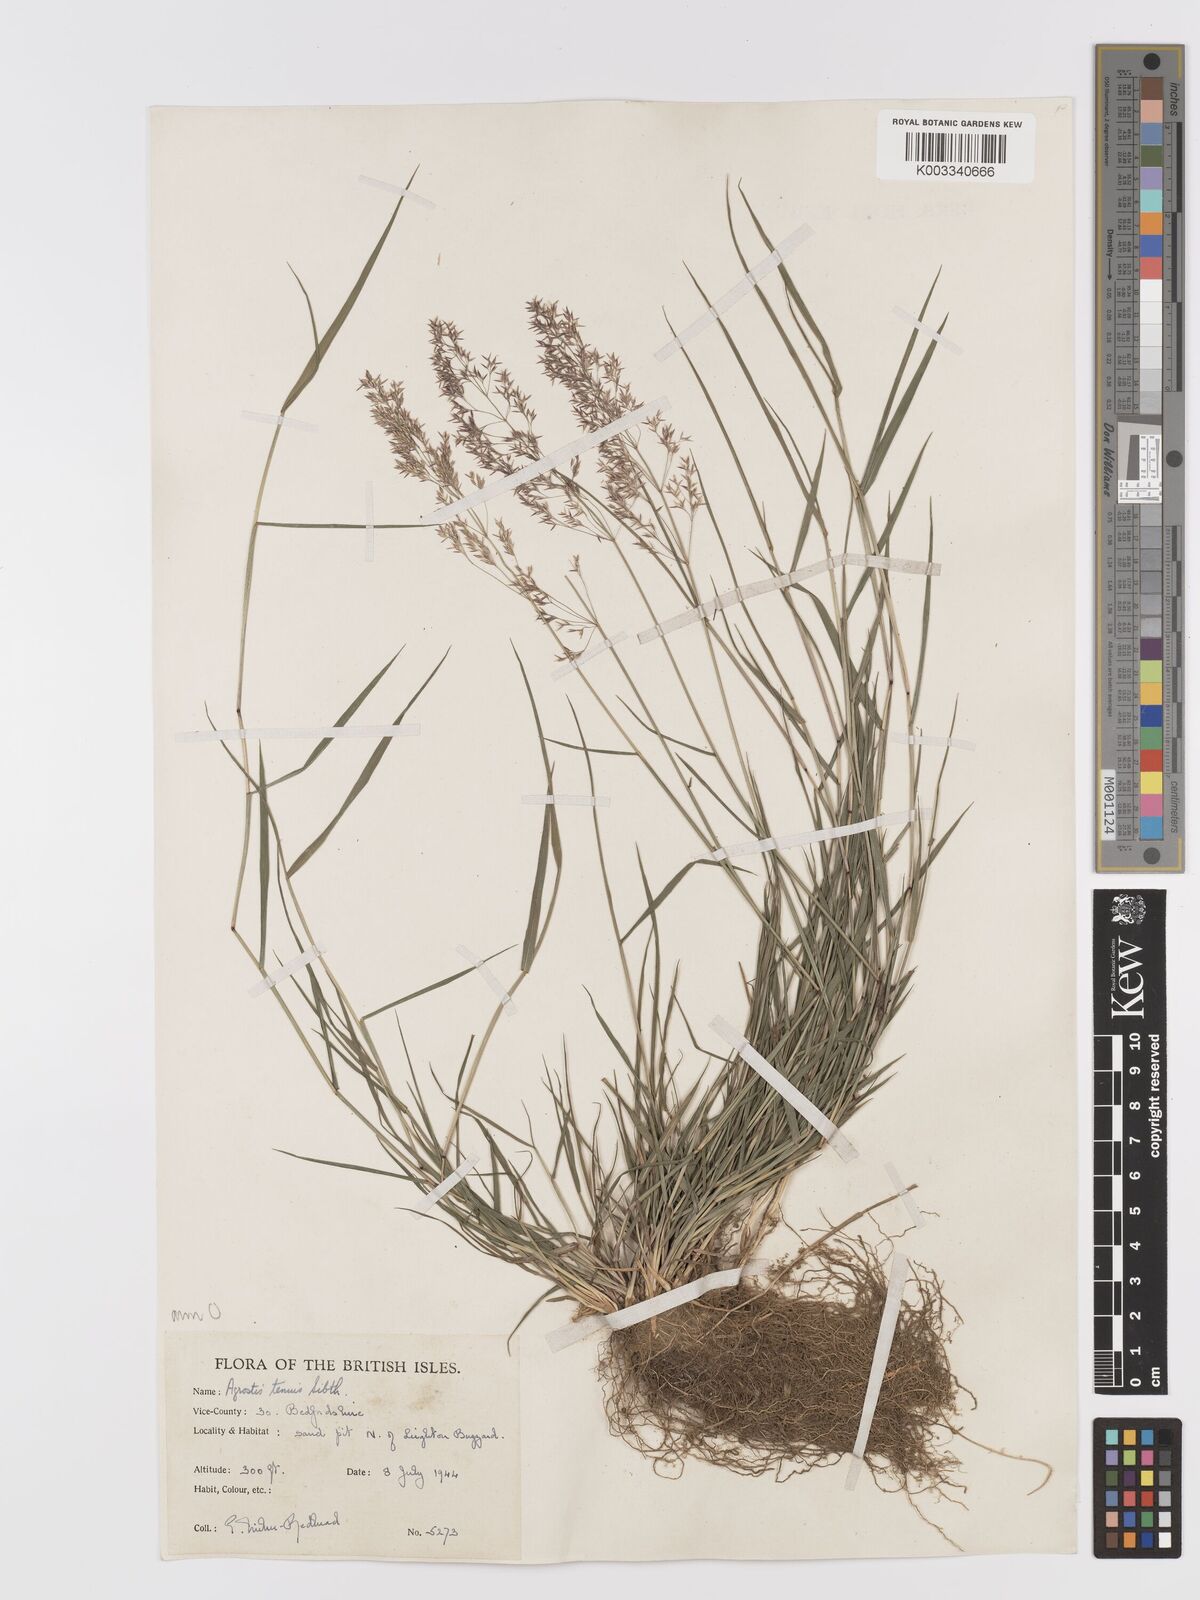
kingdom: Plantae
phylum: Tracheophyta
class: Liliopsida
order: Poales
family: Poaceae
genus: Agrostis
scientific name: Agrostis capillaris
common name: Colonial bentgrass
